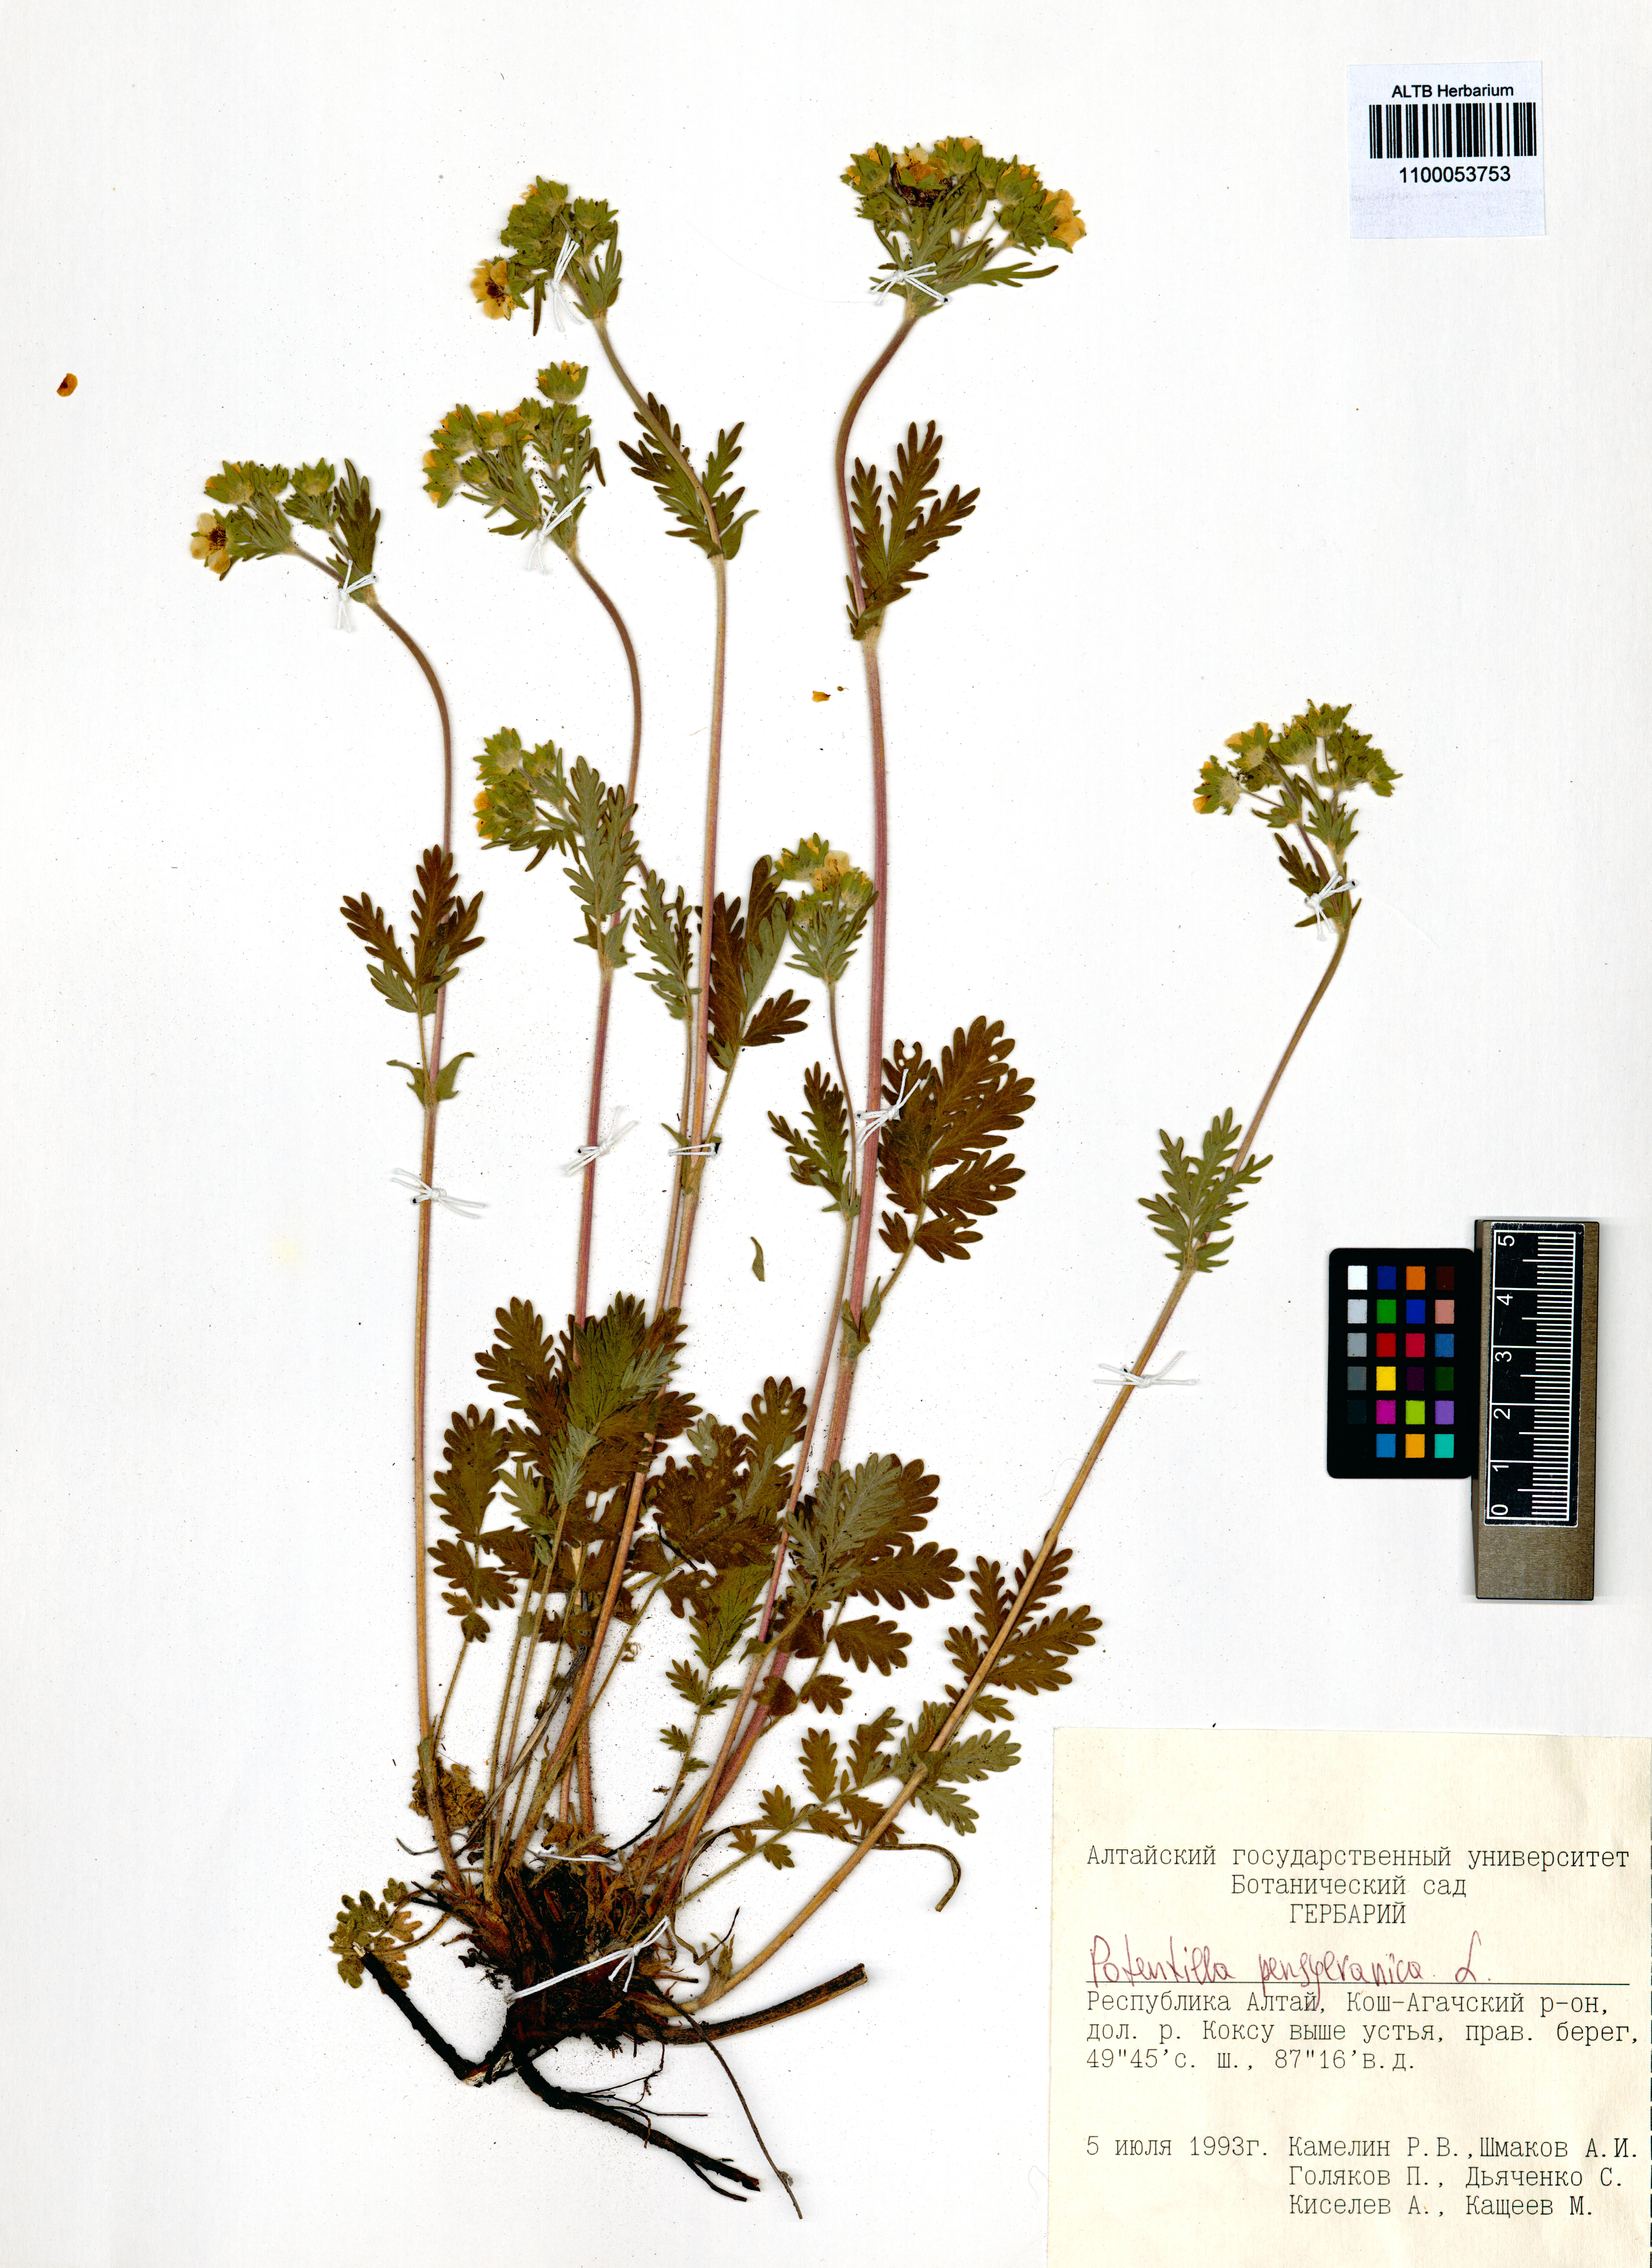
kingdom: Plantae
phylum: Tracheophyta
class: Magnoliopsida
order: Rosales
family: Rosaceae
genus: Potentilla
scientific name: Potentilla pensylvanica
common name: Pennsylvania cinquefoil
